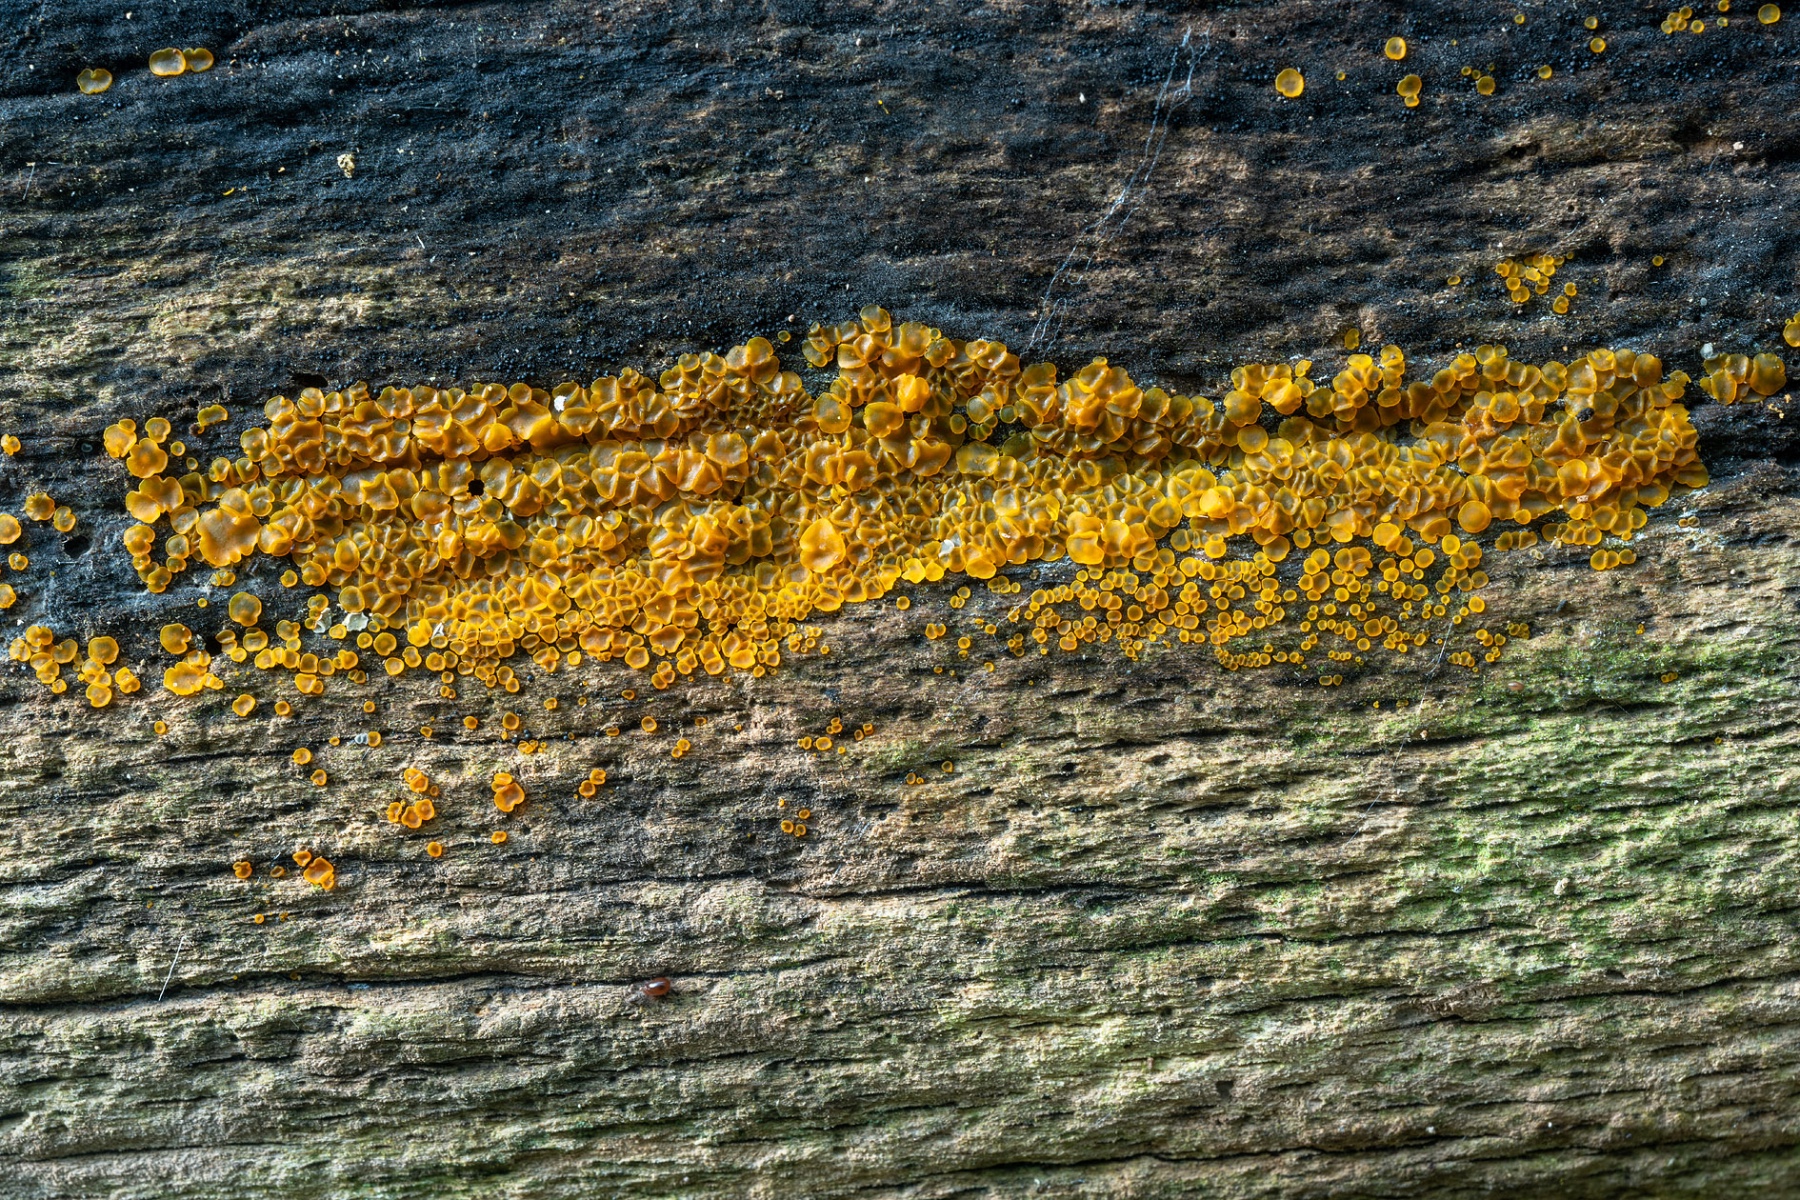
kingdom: Fungi
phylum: Ascomycota
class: Orbiliomycetes
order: Orbiliales
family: Orbiliaceae
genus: Orbilia
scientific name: Orbilia xanthostigma
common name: krumsporet voksskive
